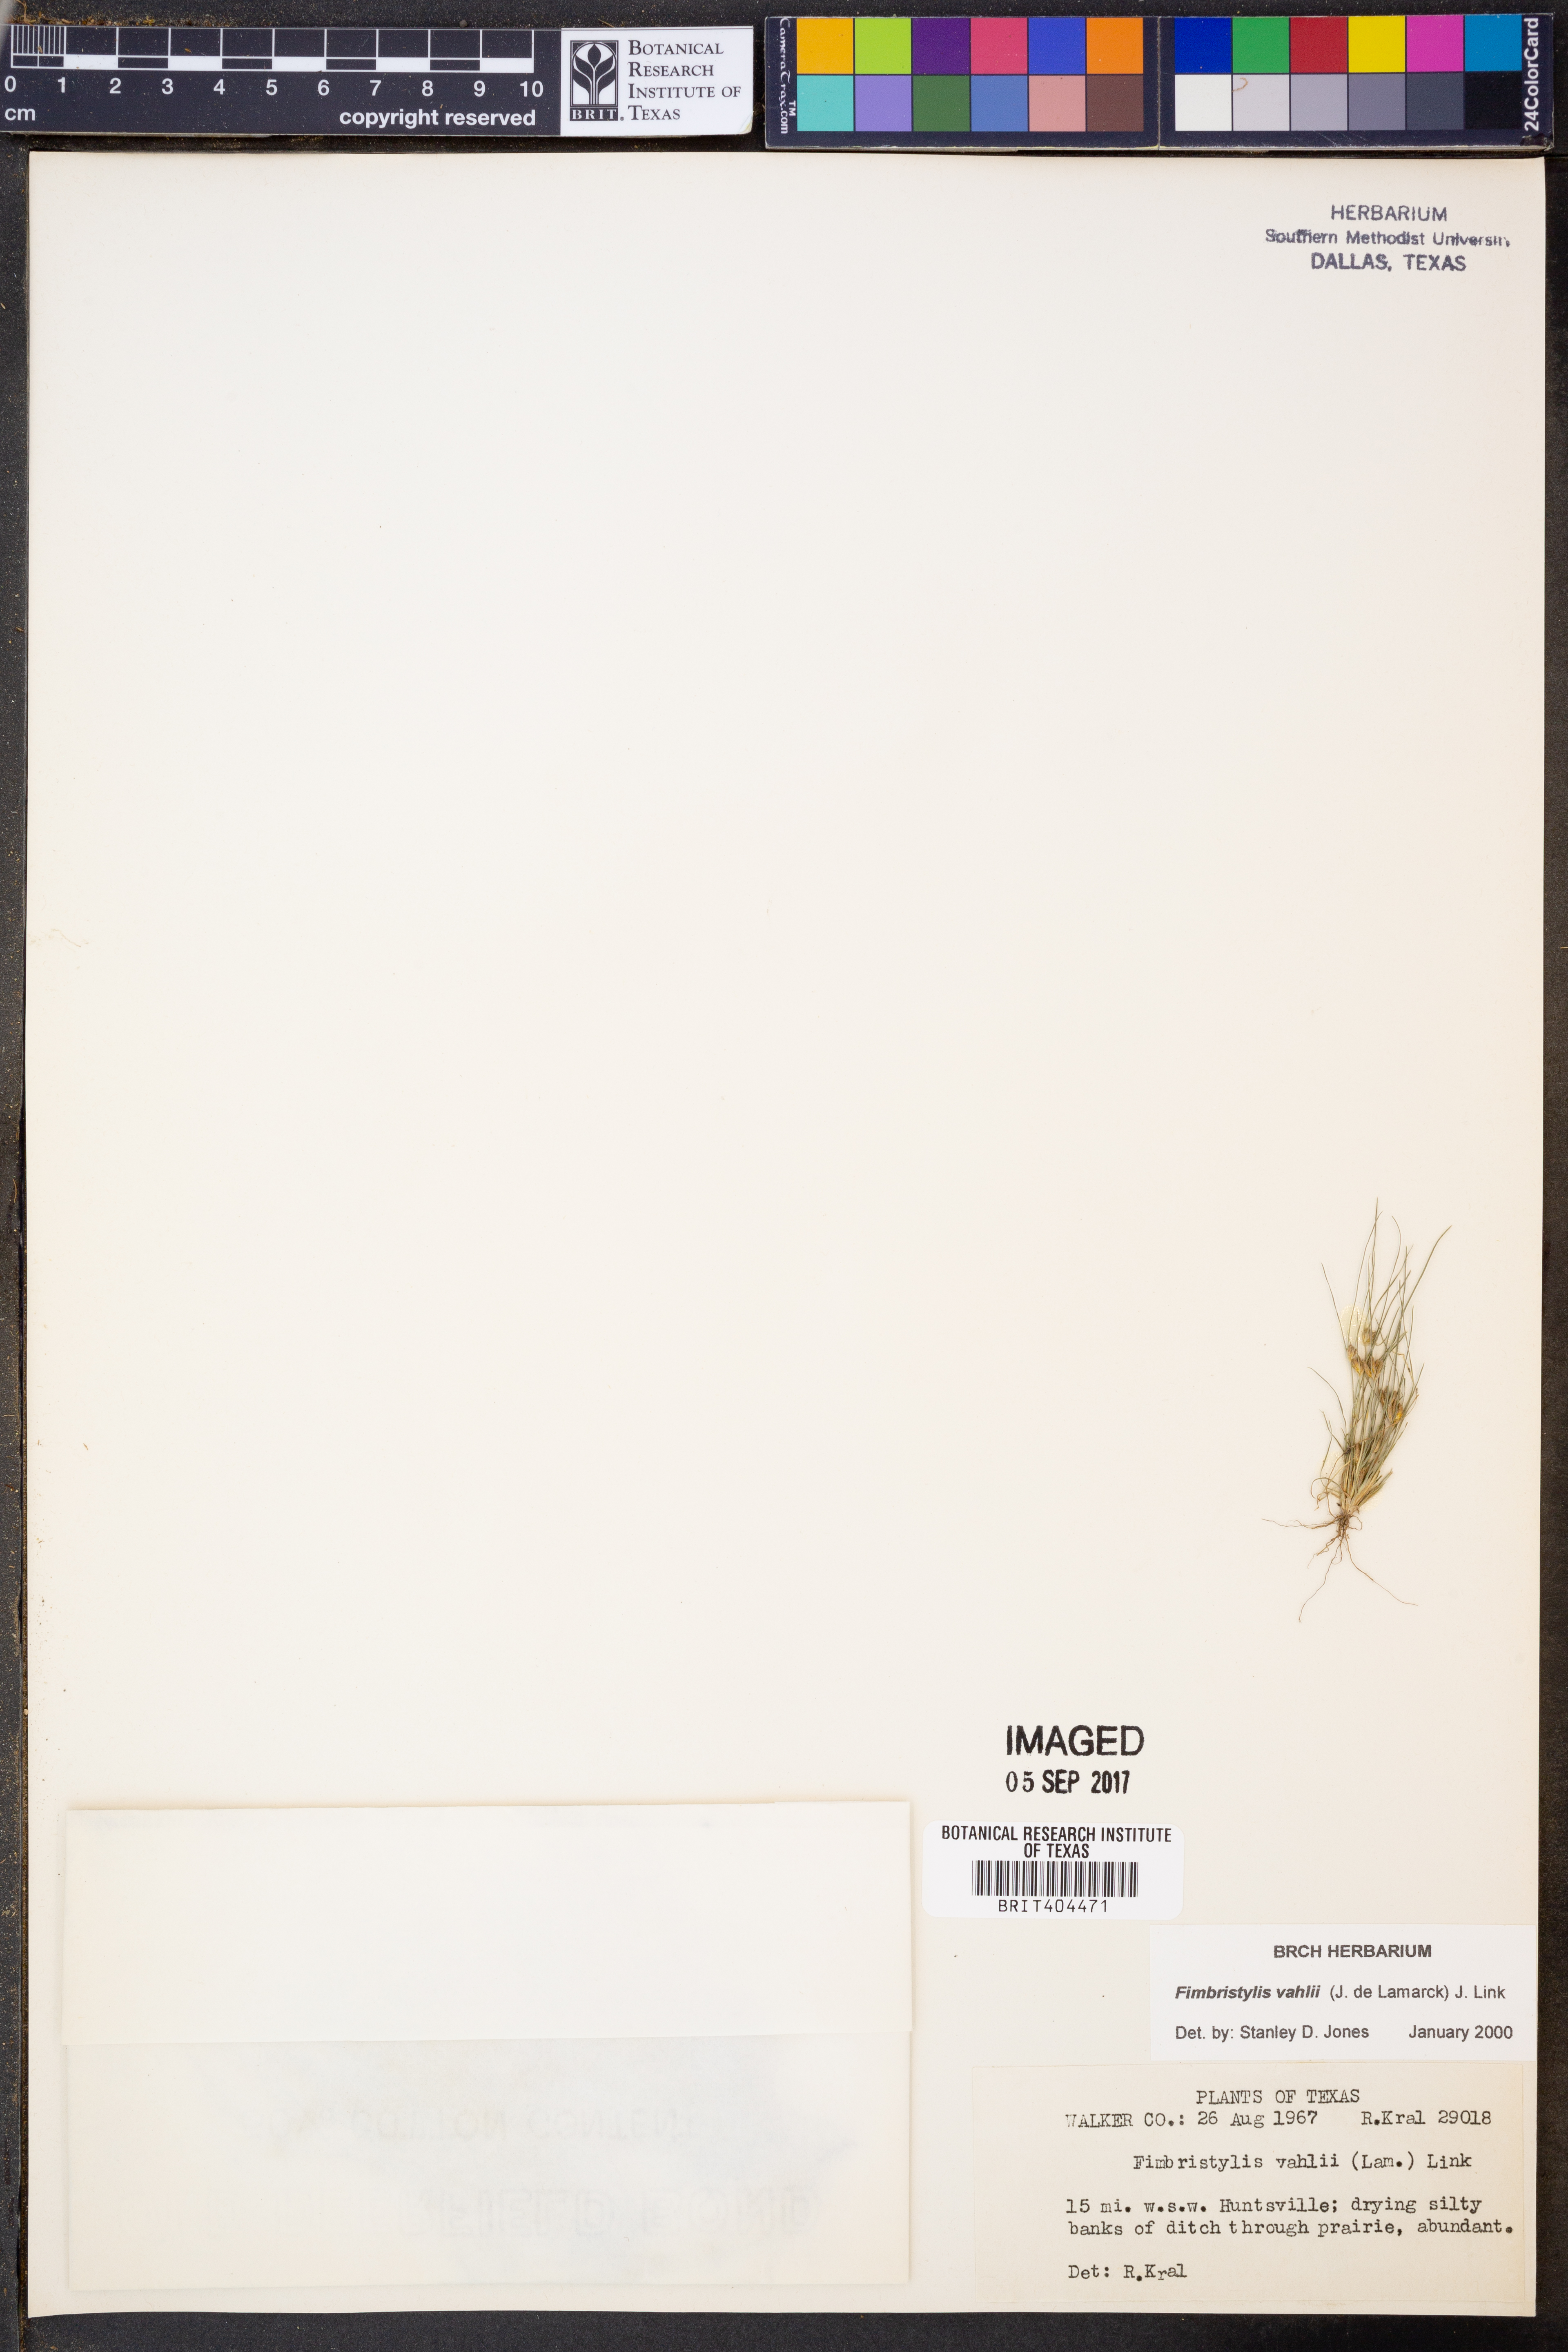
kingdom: Plantae
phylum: Tracheophyta
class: Liliopsida
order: Poales
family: Cyperaceae
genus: Fimbristylis
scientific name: Fimbristylis vahlii
